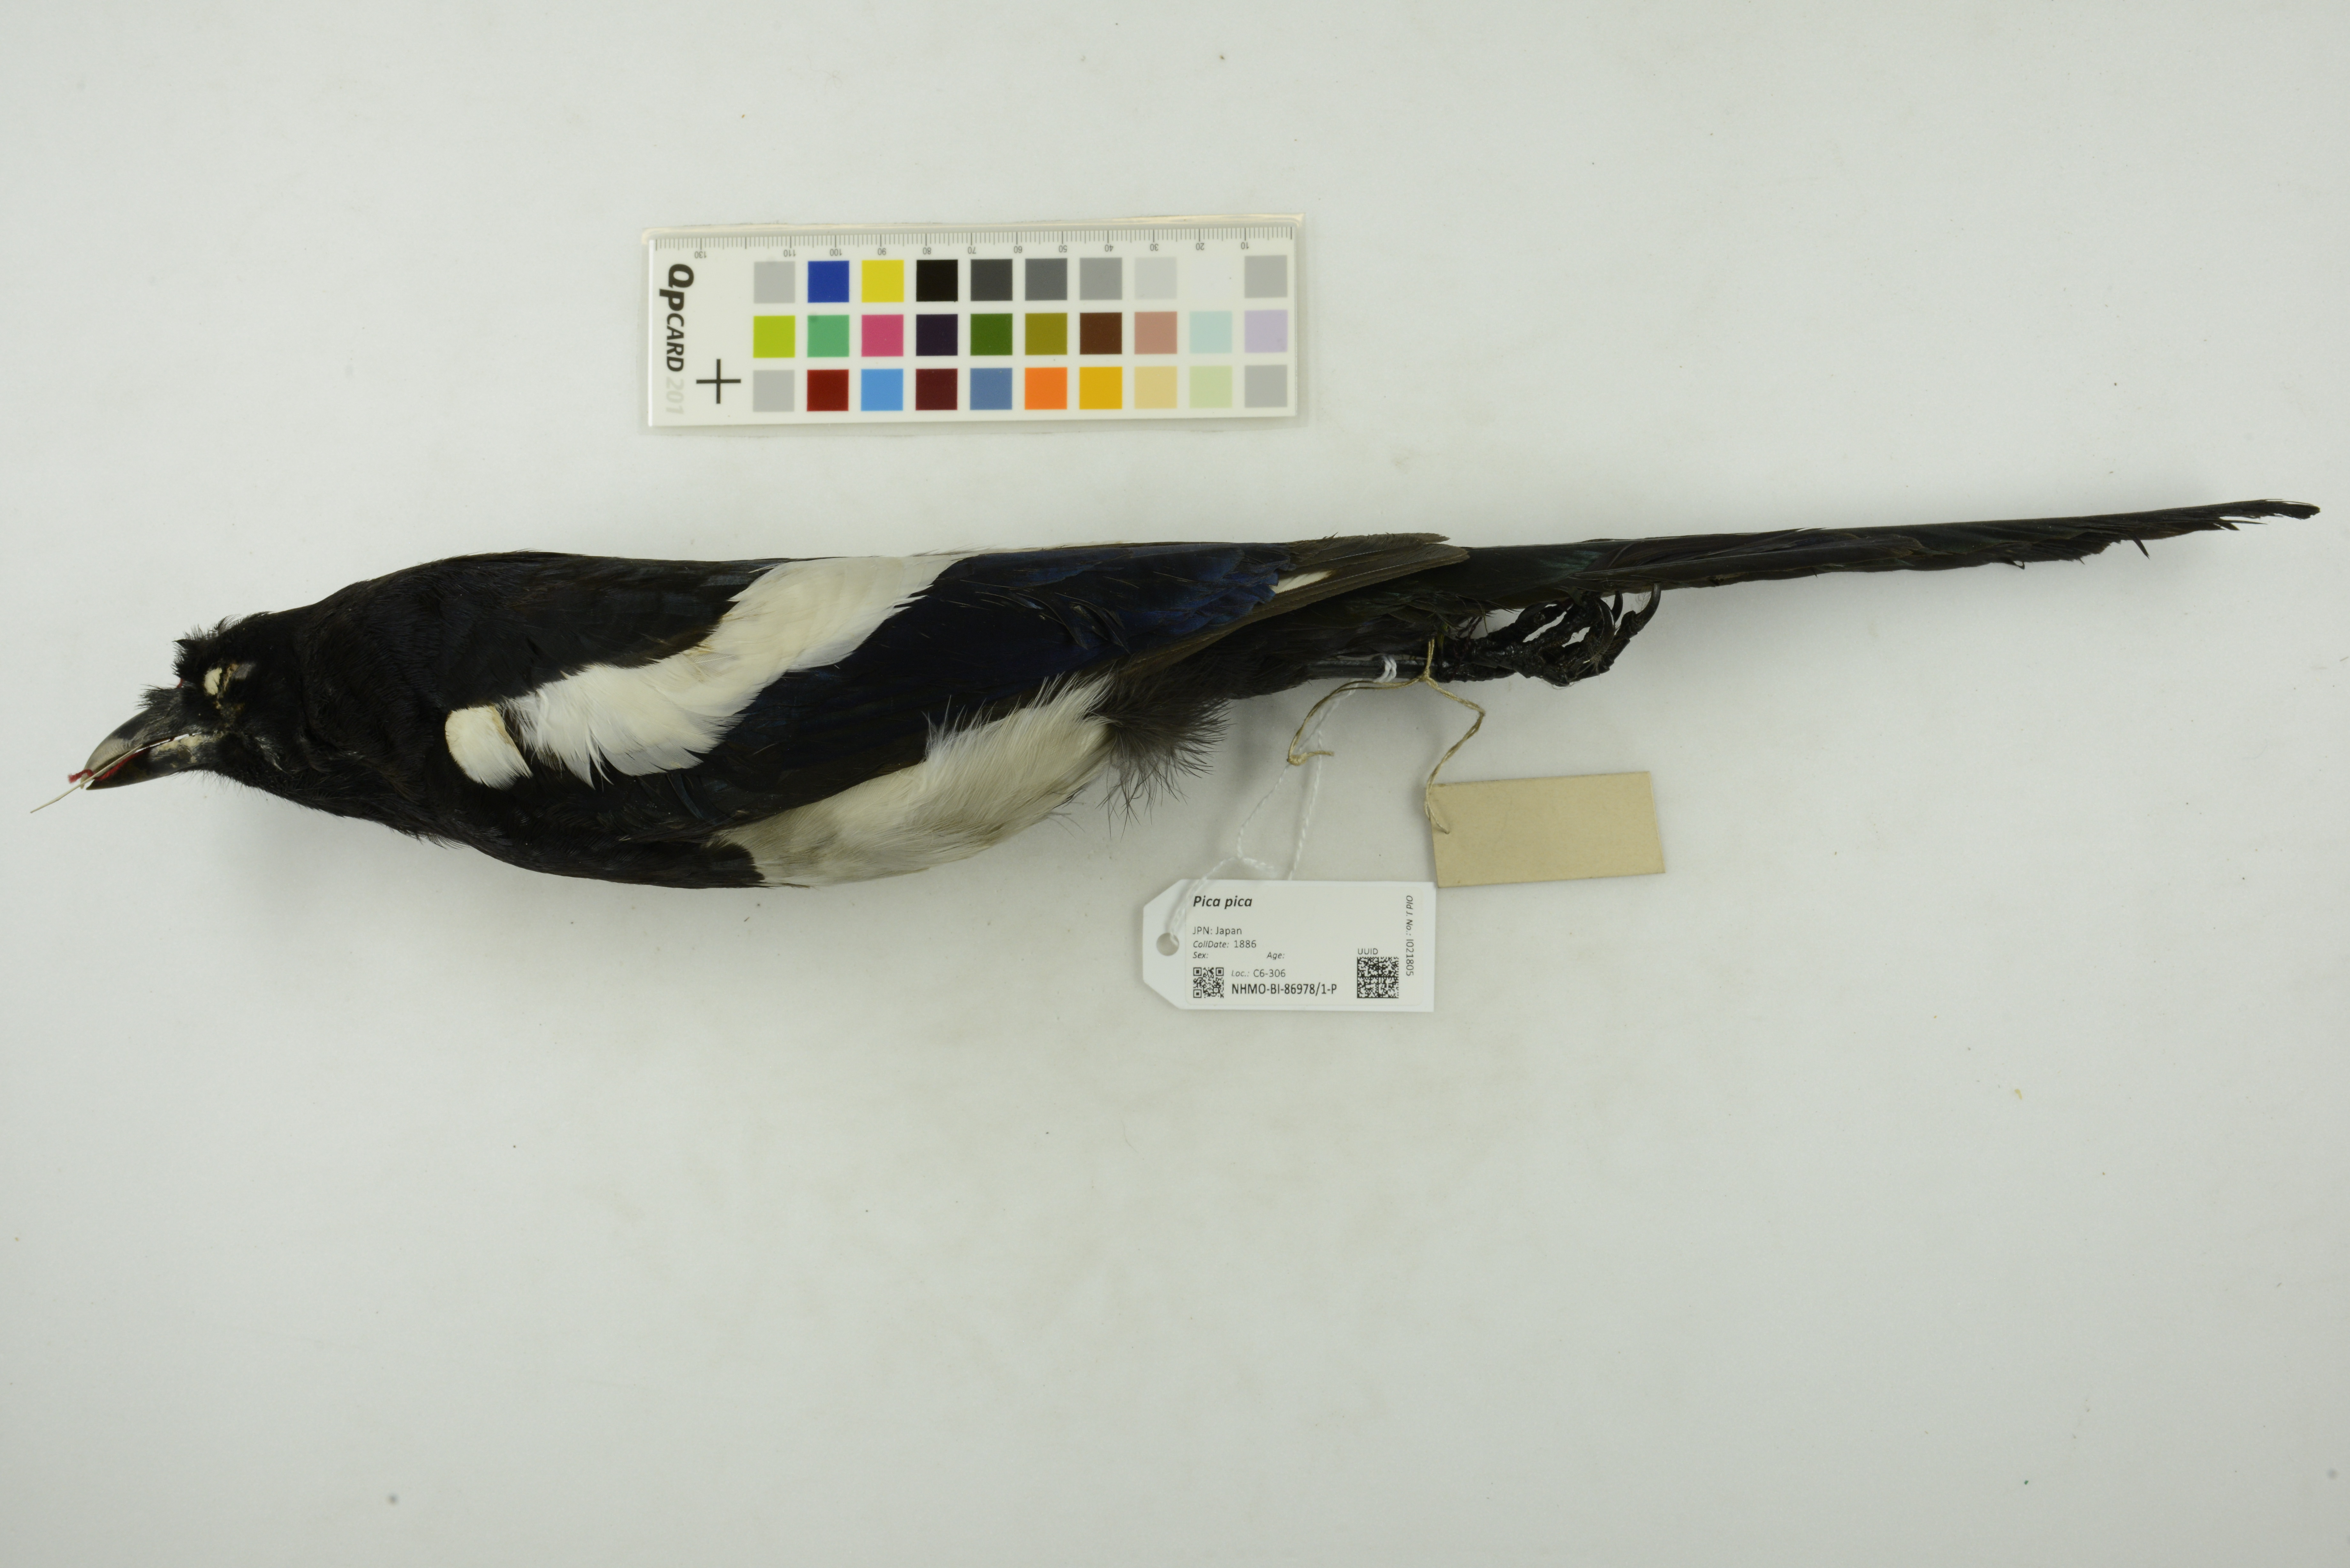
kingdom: Animalia
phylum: Chordata
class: Aves
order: Passeriformes
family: Corvidae
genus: Pica
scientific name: Pica pica
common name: Eurasian magpie
